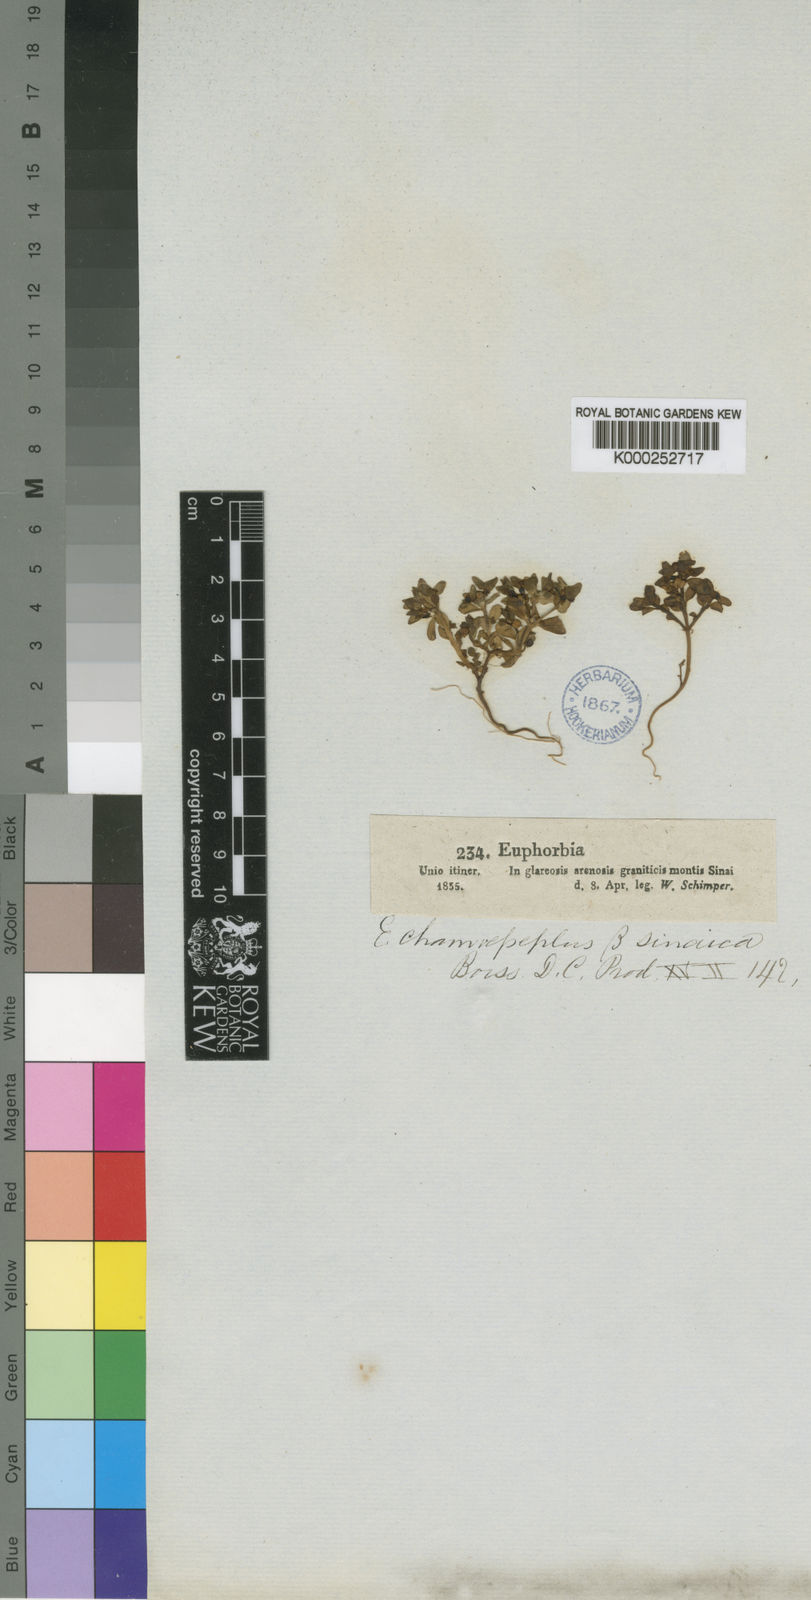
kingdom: Plantae
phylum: Tracheophyta
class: Magnoliopsida
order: Malpighiales
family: Euphorbiaceae
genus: Euphorbia
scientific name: Euphorbia chamaepeplus
